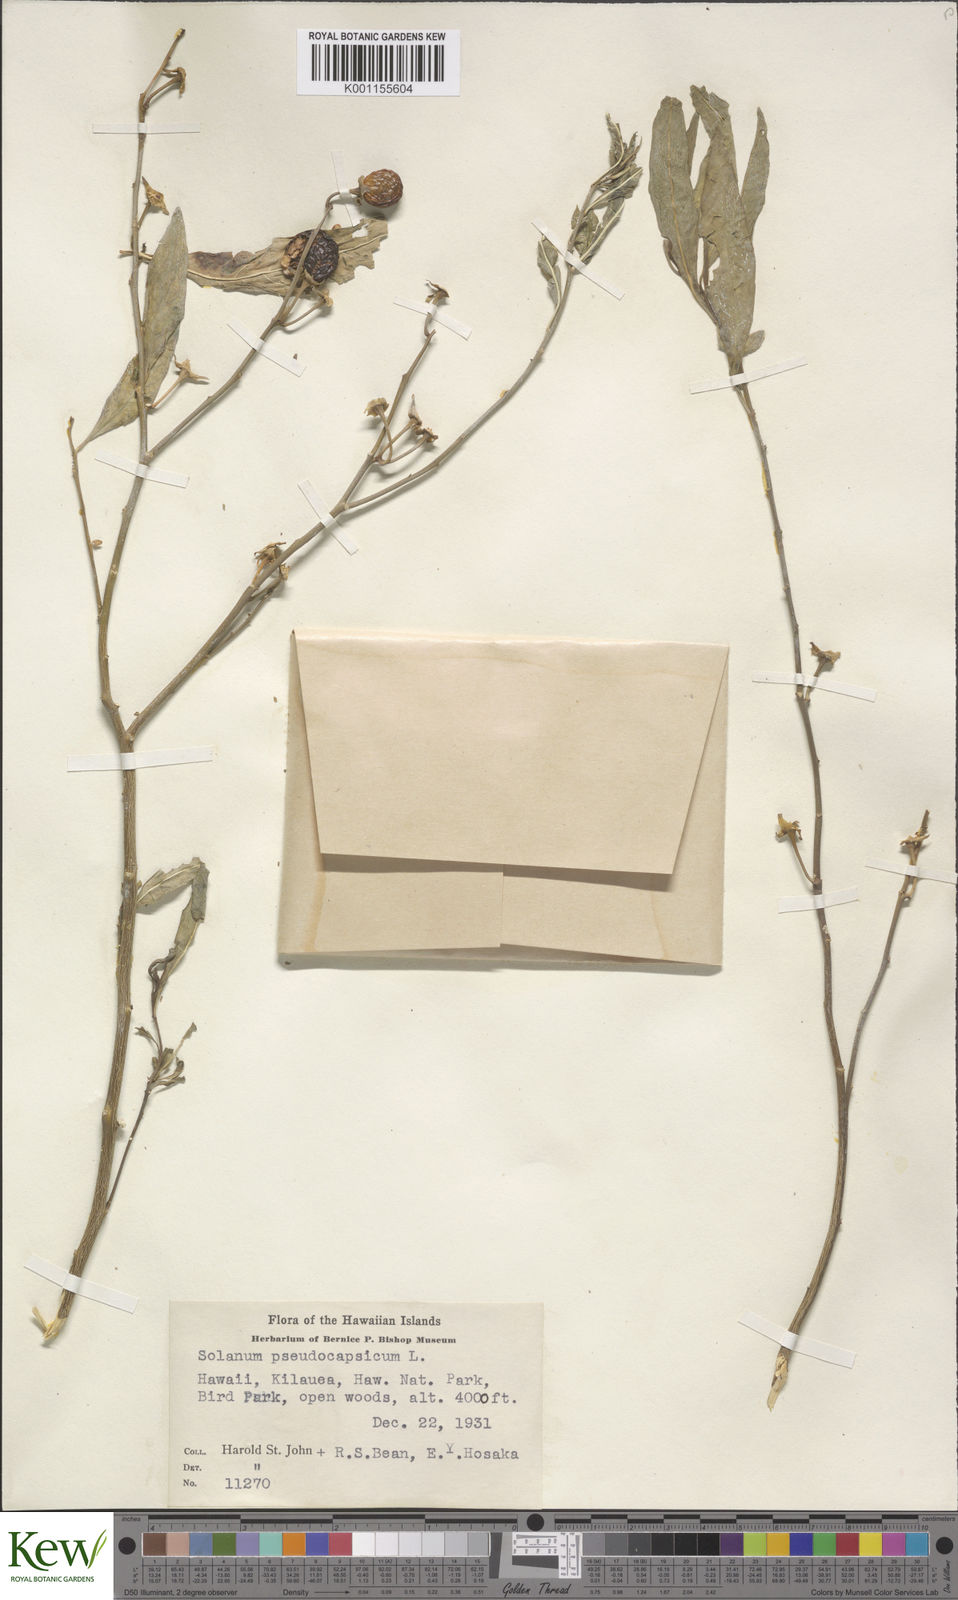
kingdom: Plantae
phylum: Tracheophyta
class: Magnoliopsida
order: Solanales
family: Solanaceae
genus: Solanum
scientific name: Solanum pseudocapsicum
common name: Jerusalem cherry
